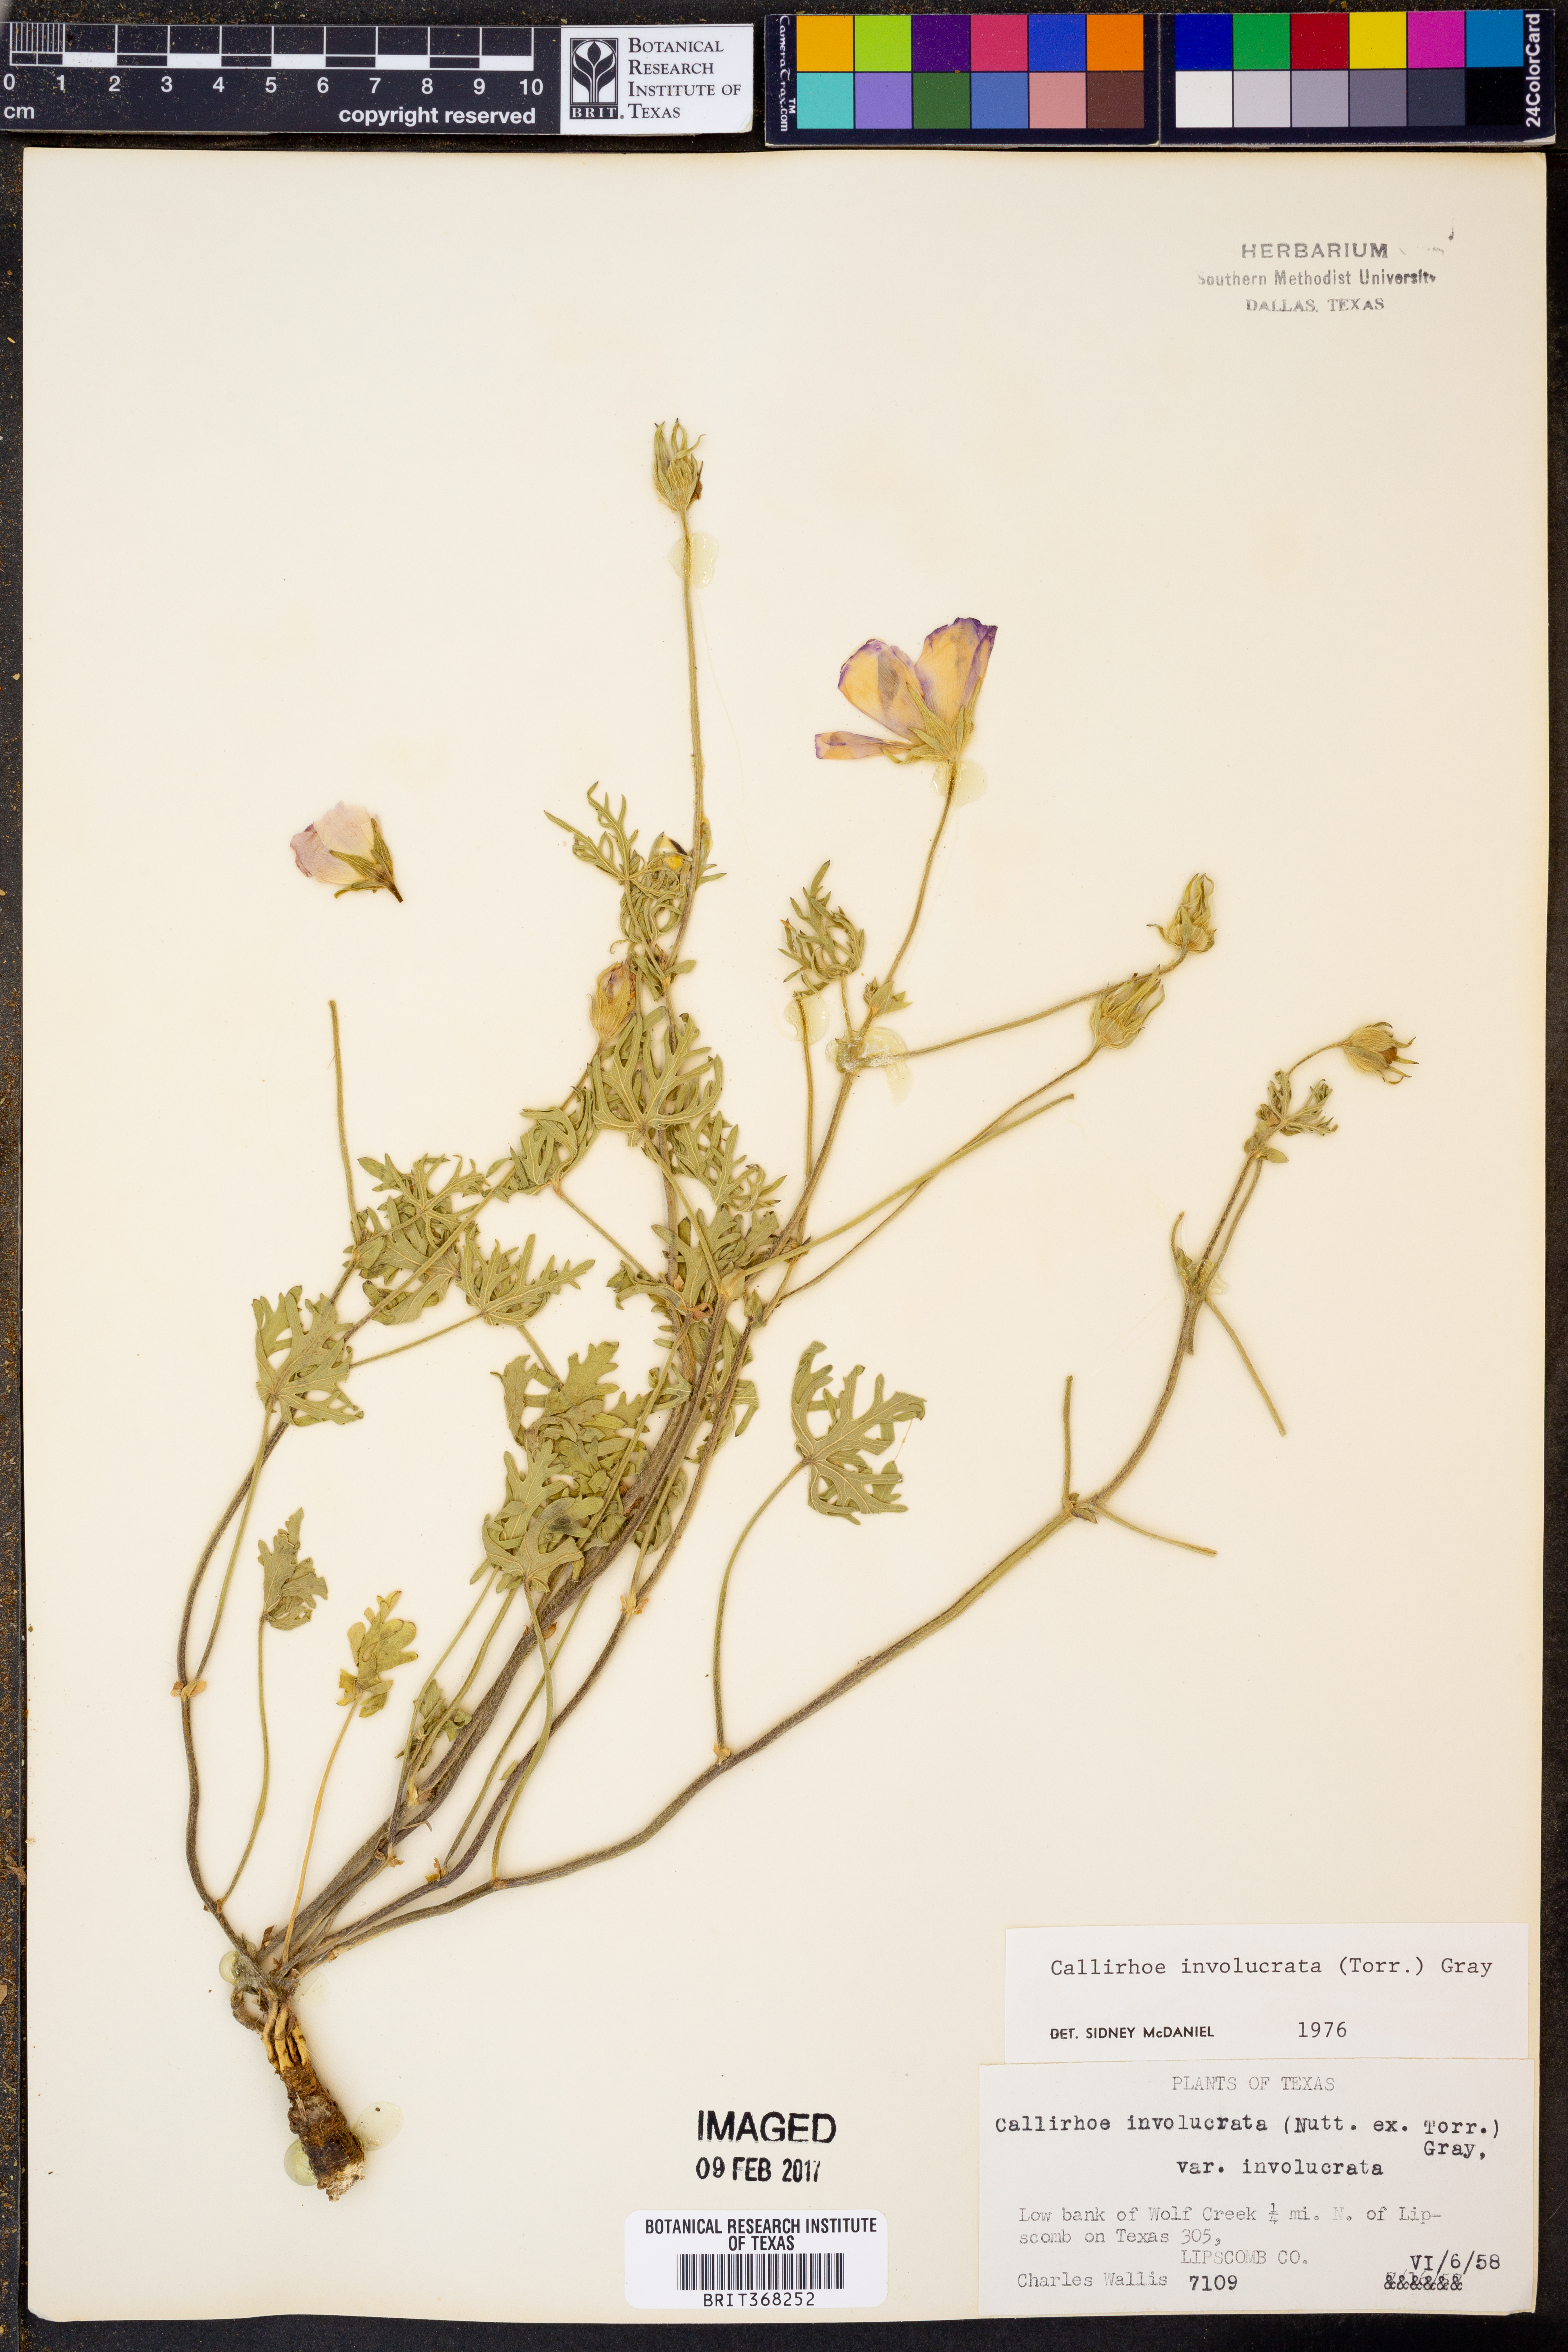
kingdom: Plantae
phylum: Tracheophyta
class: Magnoliopsida
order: Malvales
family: Malvaceae
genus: Callirhoe
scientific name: Callirhoe involucrata
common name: Purple poppy-mallow
